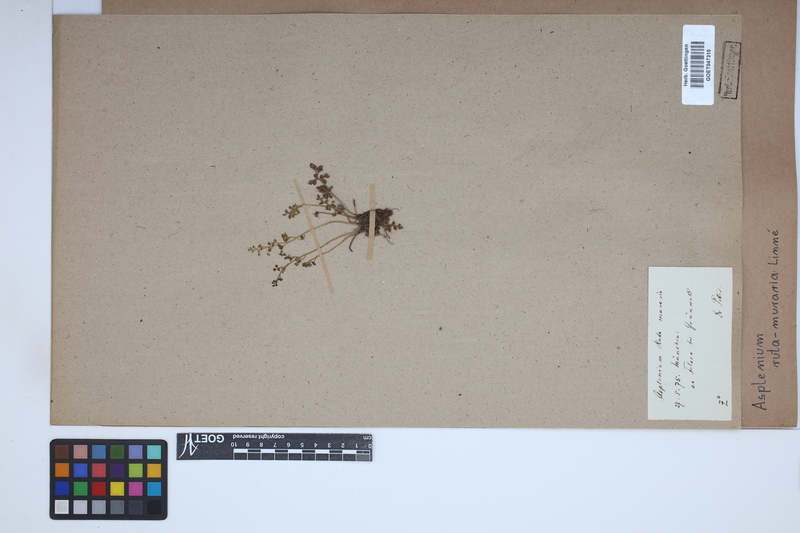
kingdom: Plantae
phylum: Tracheophyta
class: Polypodiopsida
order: Polypodiales
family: Aspleniaceae
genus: Asplenium
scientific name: Asplenium ruta-muraria
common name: Wall-rue
